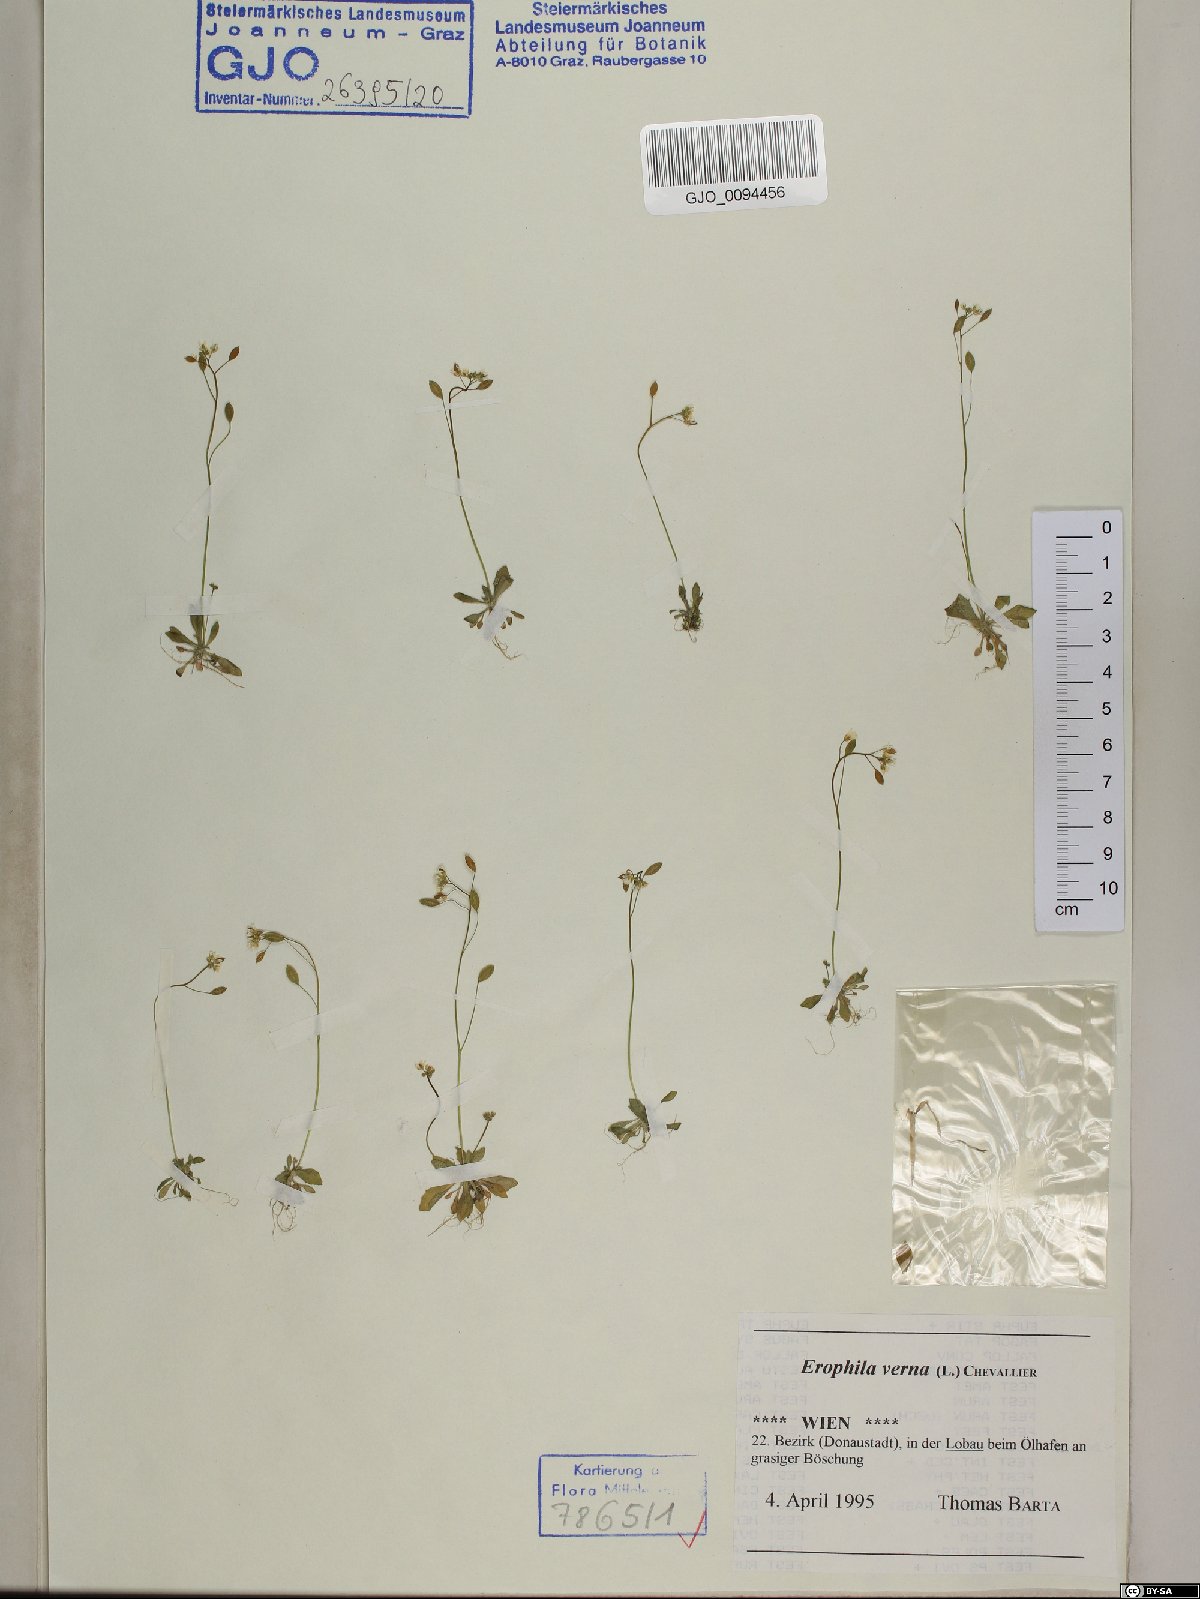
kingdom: Plantae
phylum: Tracheophyta
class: Magnoliopsida
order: Brassicales
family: Brassicaceae
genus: Draba
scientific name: Draba verna
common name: Spring draba
